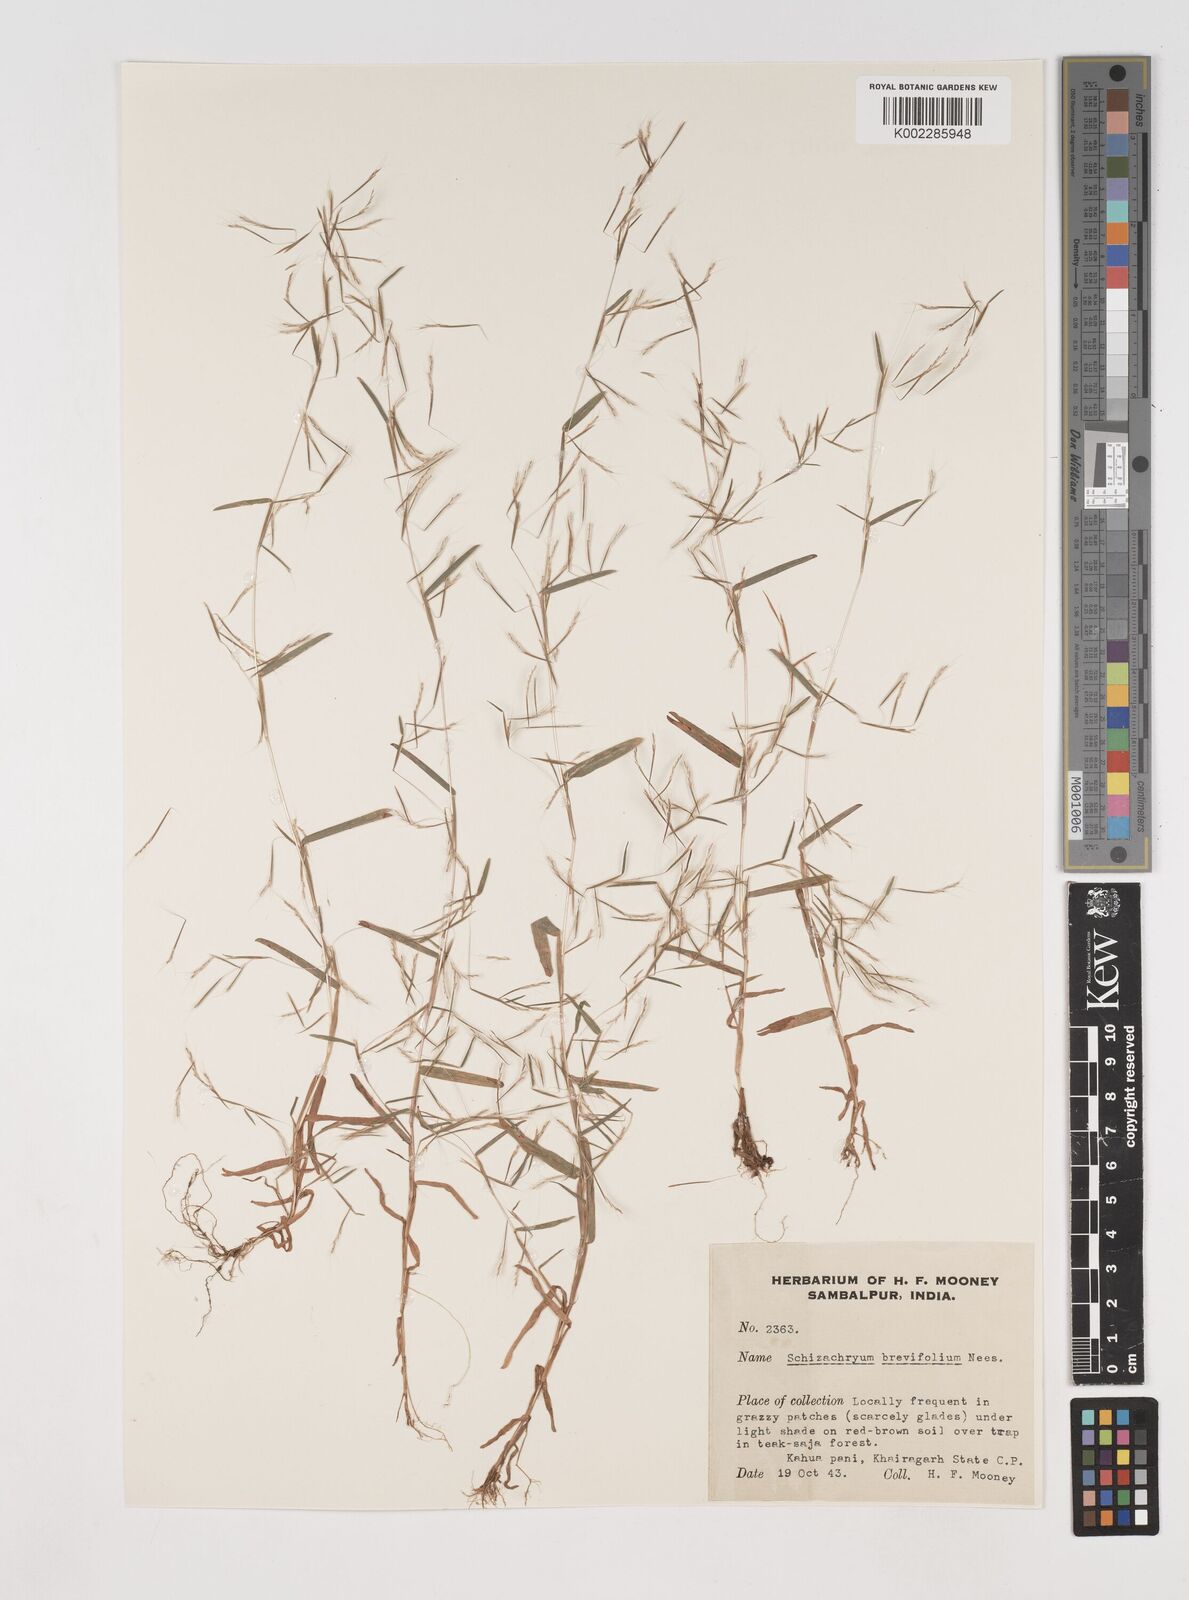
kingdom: Plantae
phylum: Tracheophyta
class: Liliopsida
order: Poales
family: Poaceae
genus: Schizachyrium
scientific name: Schizachyrium brevifolium
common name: Serillo dulce
